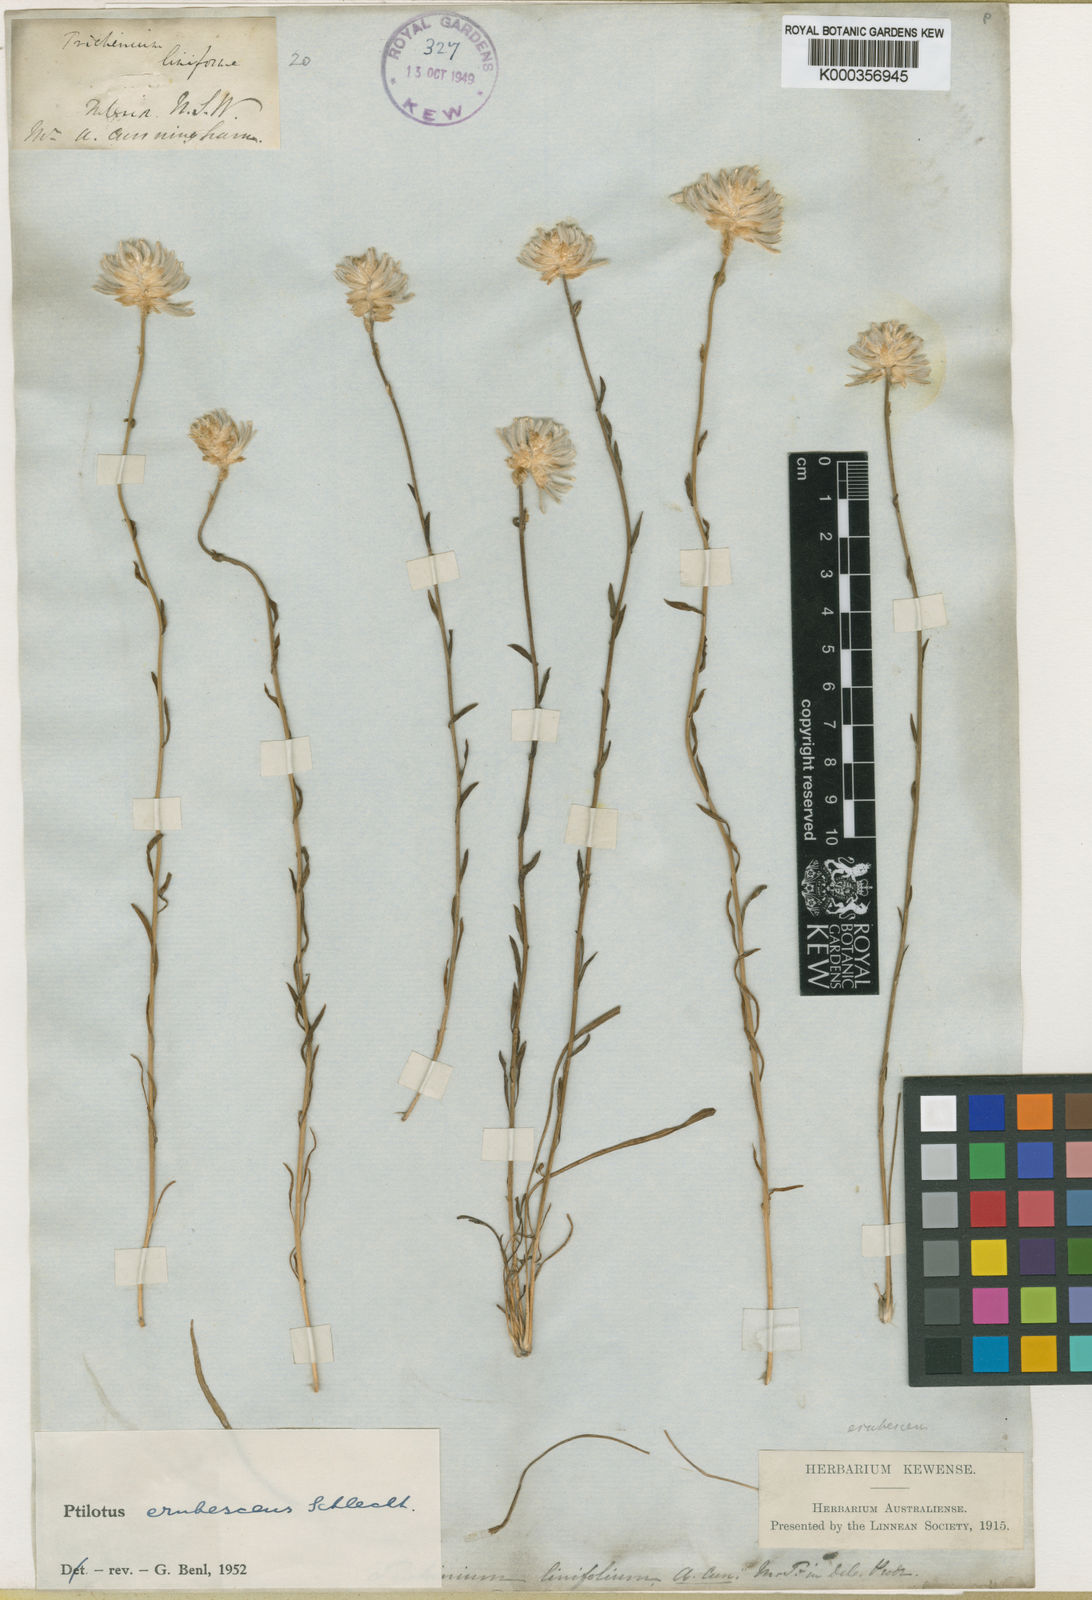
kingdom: Plantae
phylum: Tracheophyta
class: Magnoliopsida
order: Caryophyllales
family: Amaranthaceae
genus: Ptilotus
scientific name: Ptilotus erubescens
